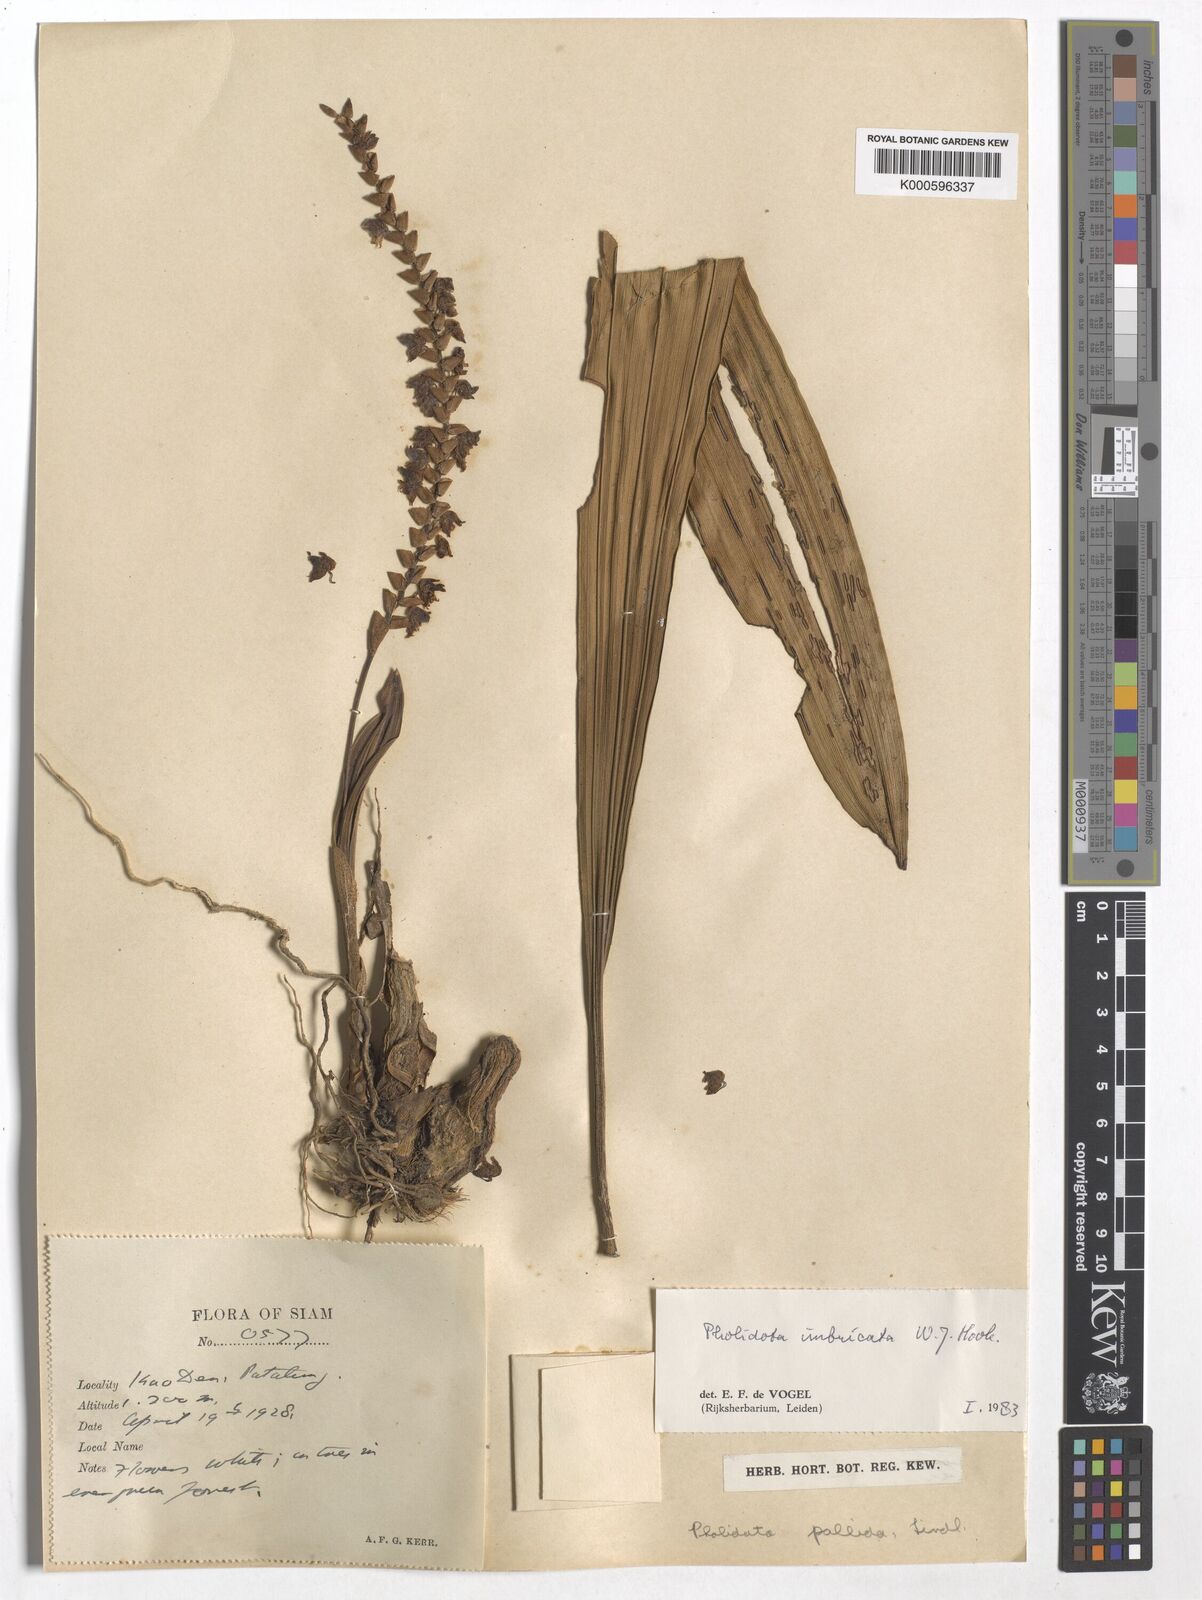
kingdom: Plantae
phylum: Tracheophyta
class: Liliopsida
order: Asparagales
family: Orchidaceae
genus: Coelogyne
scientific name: Coelogyne imbricata
